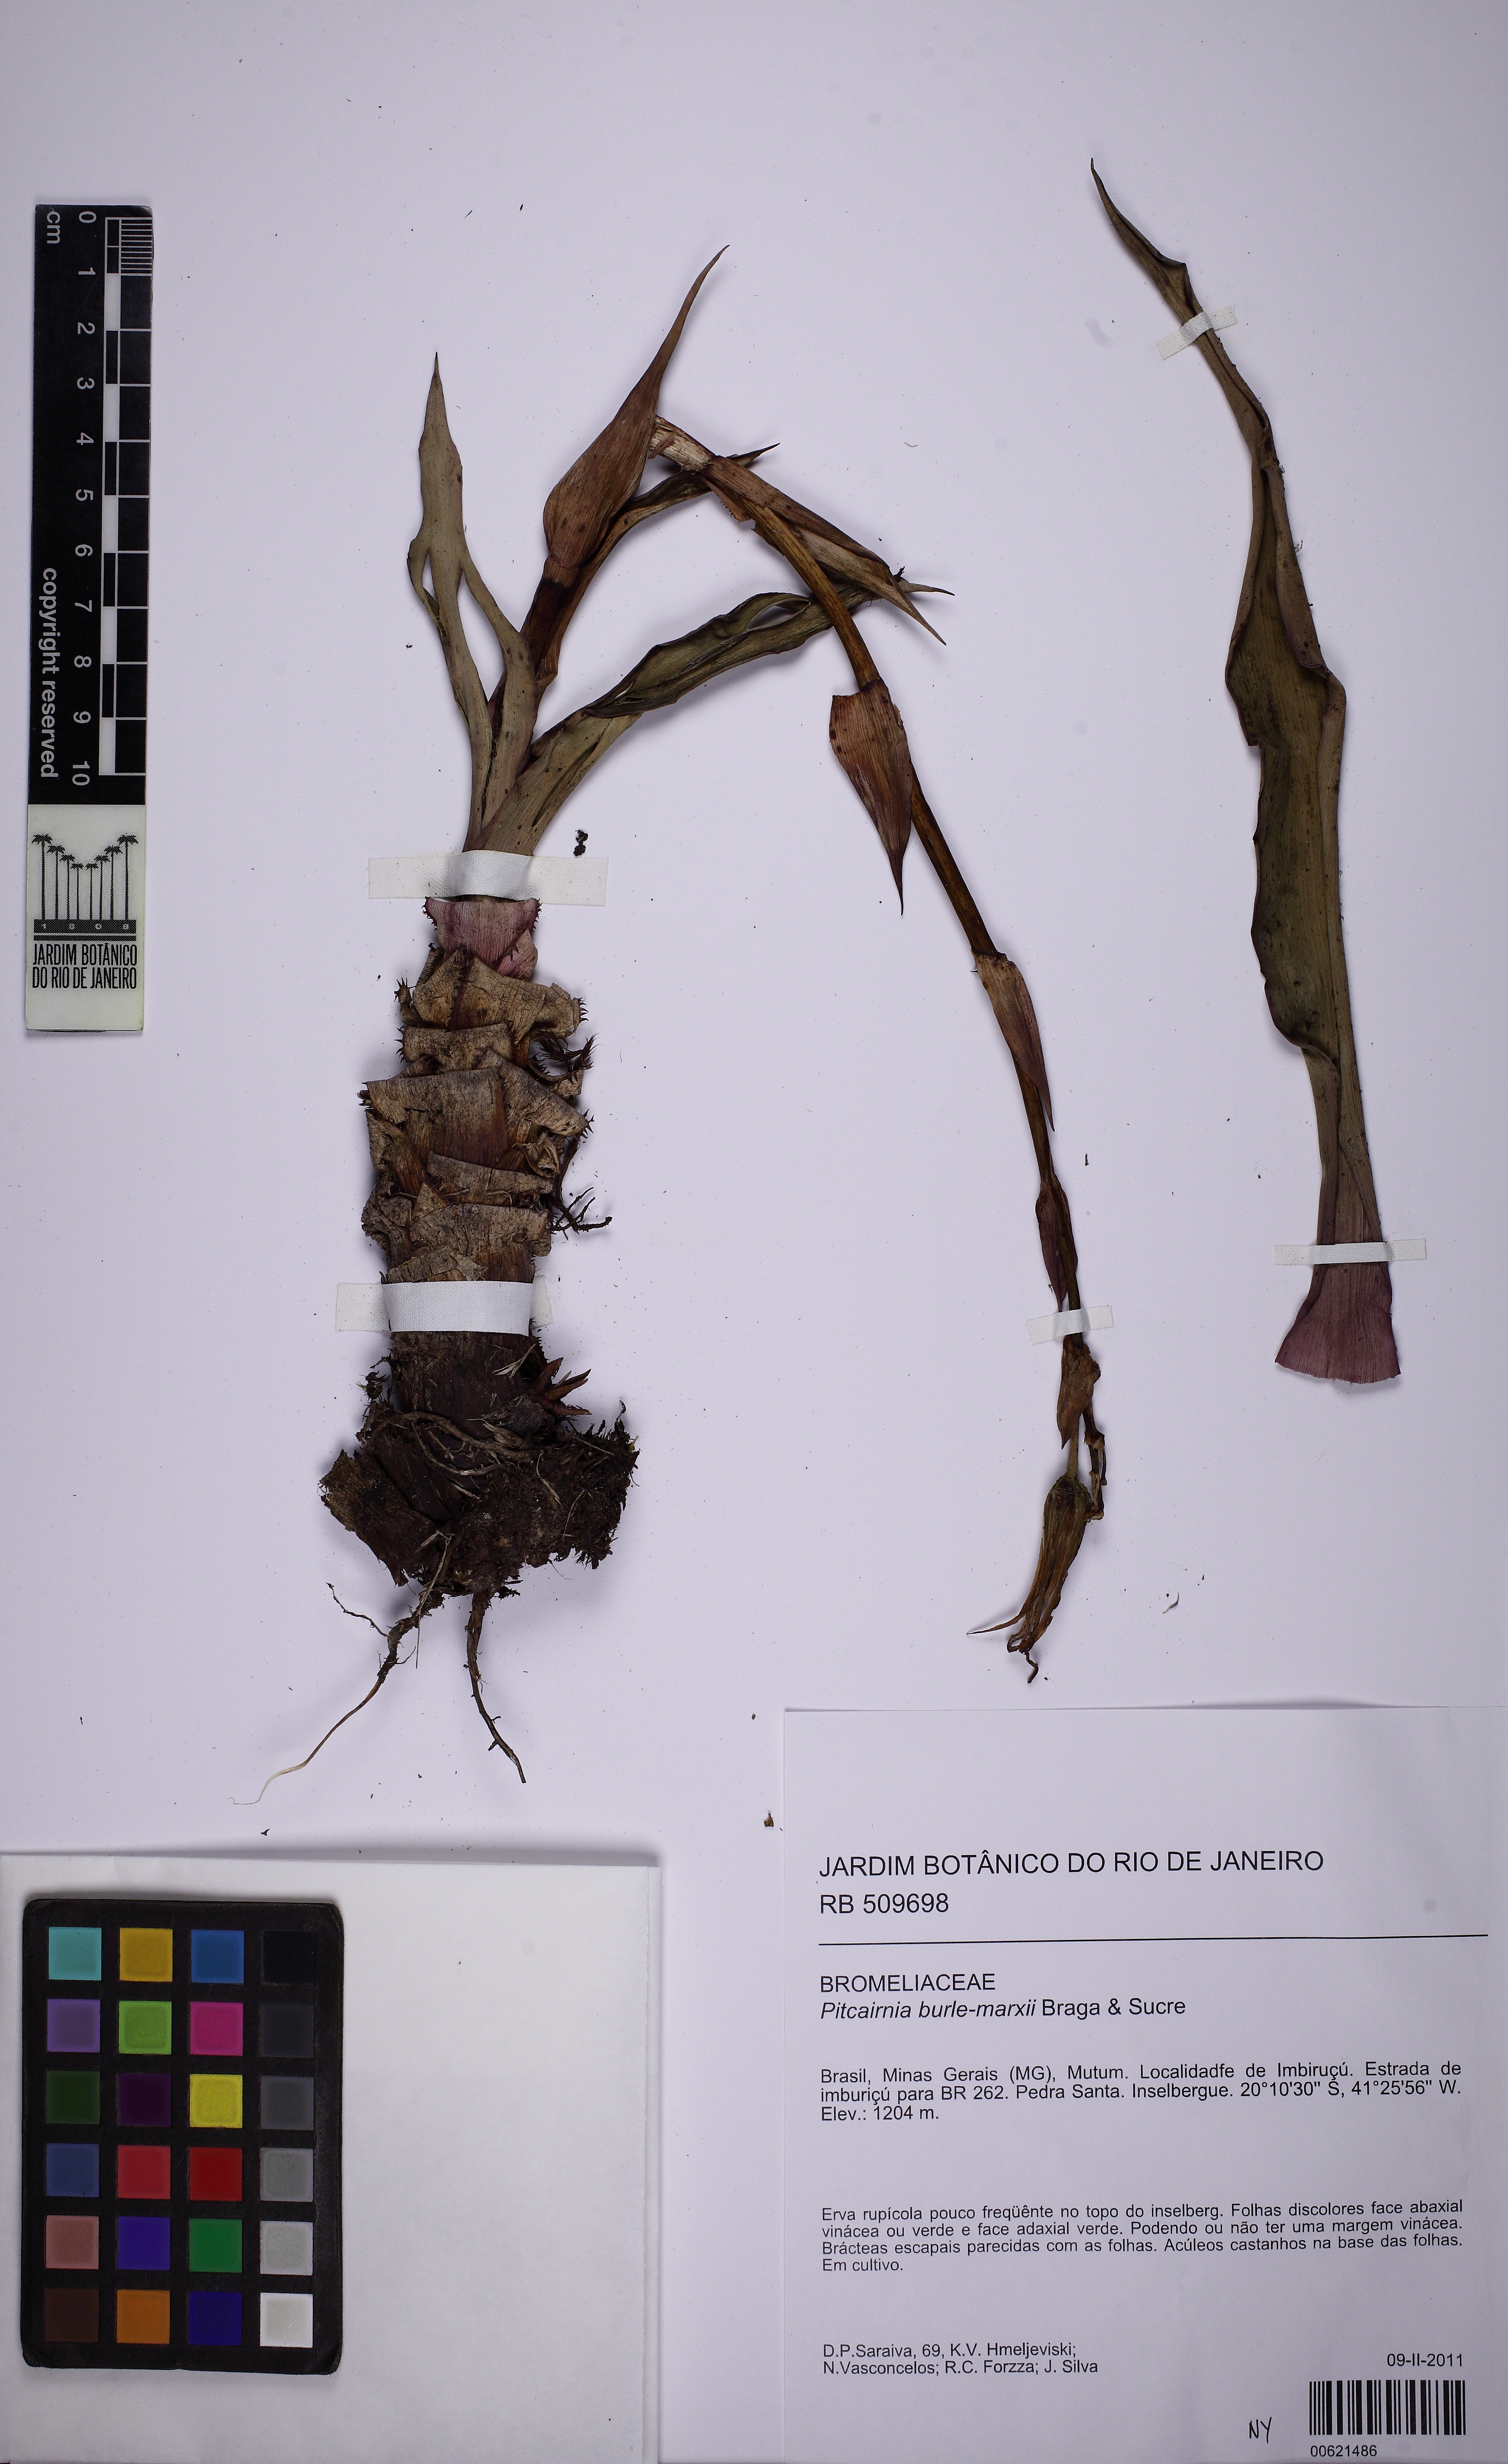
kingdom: Plantae
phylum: Tracheophyta
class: Liliopsida
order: Poales
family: Bromeliaceae
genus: Pitcairnia
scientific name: Pitcairnia burle-marxii
